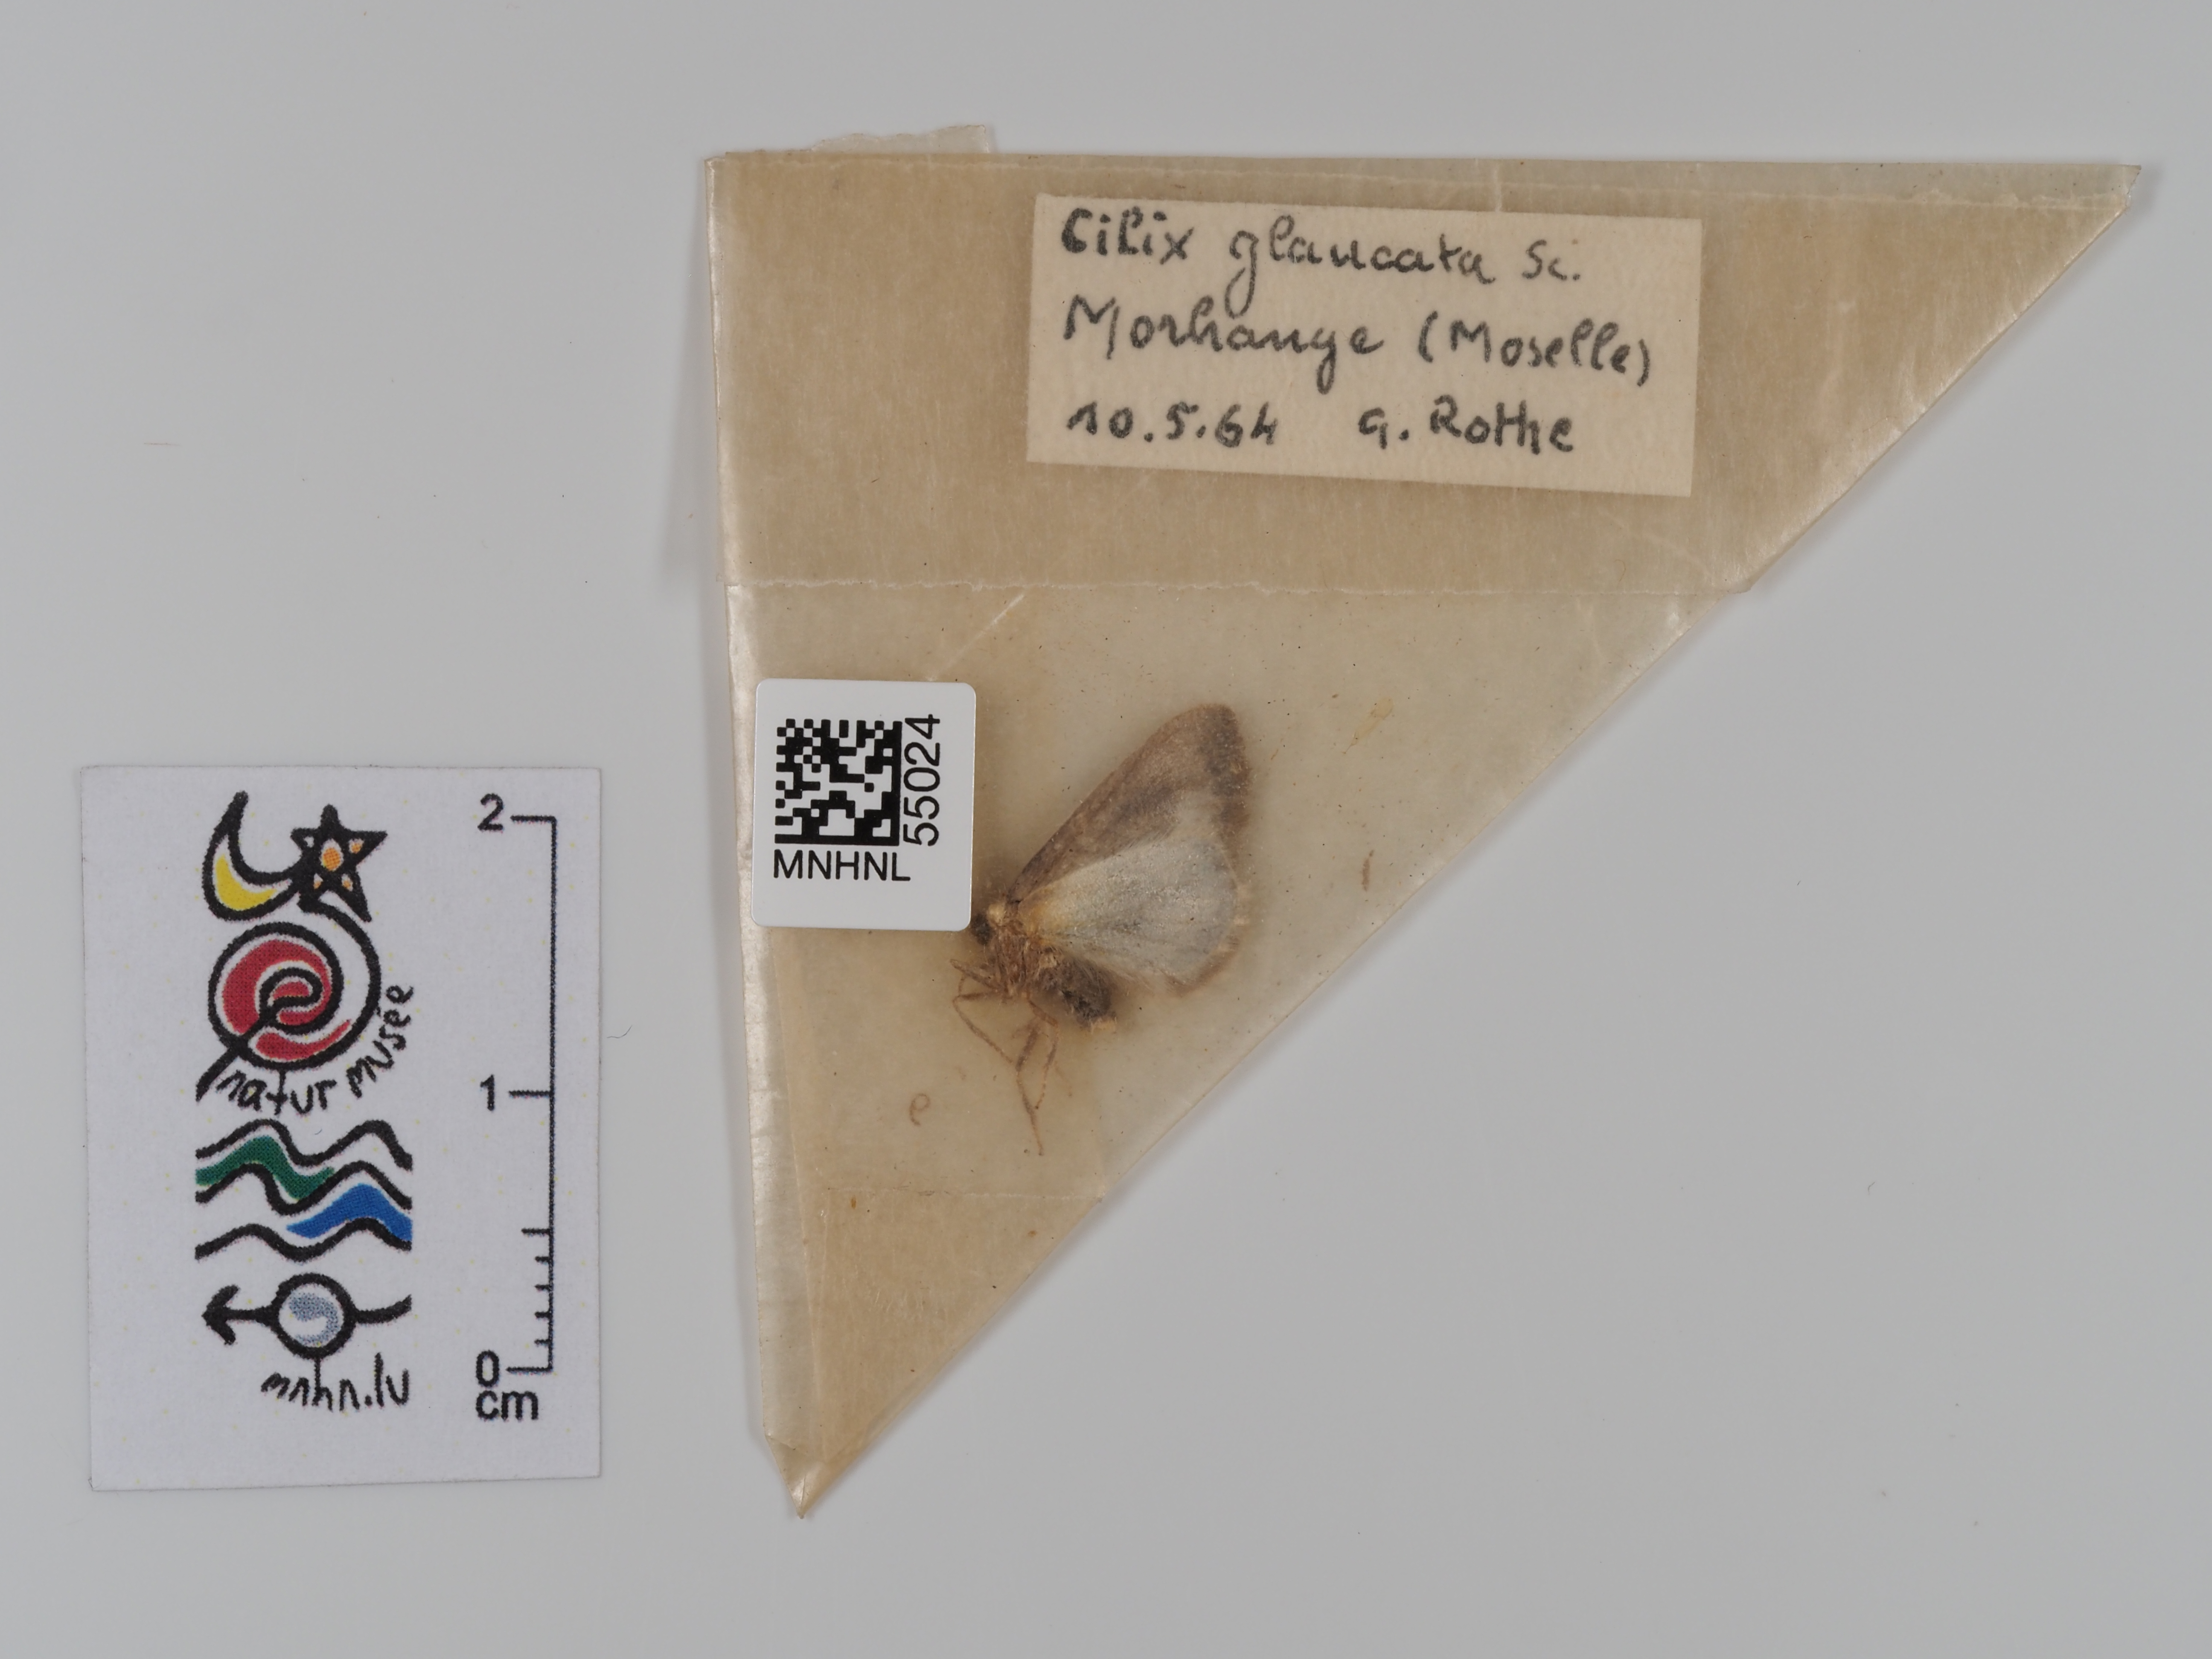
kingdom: Animalia
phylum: Arthropoda
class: Insecta
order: Lepidoptera
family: Drepanidae
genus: Cilix
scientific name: Cilix glaucata
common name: Chinese character
